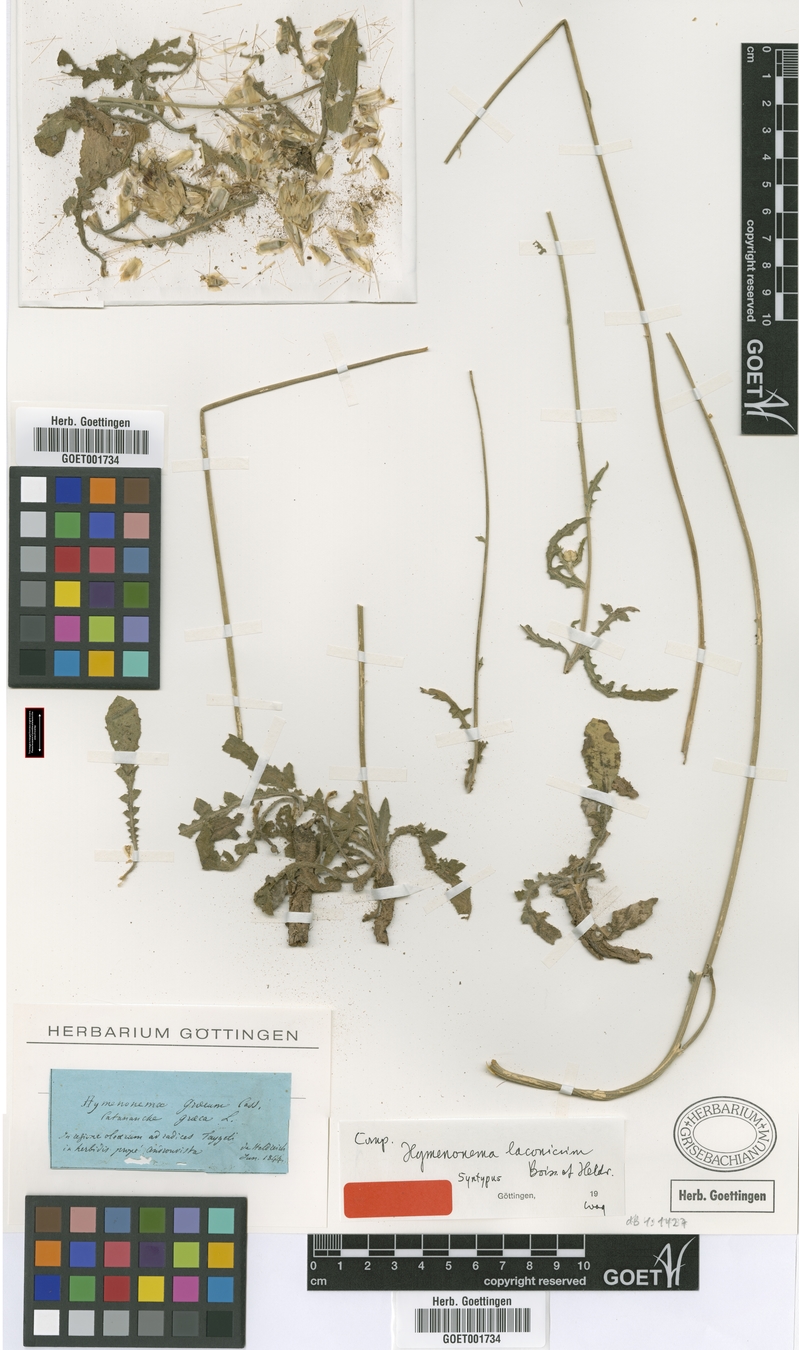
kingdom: Plantae
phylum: Tracheophyta
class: Magnoliopsida
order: Asterales
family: Asteraceae
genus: Hymenonema
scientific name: Hymenonema laconicum
